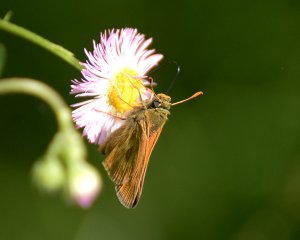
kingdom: Animalia
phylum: Arthropoda
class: Insecta
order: Lepidoptera
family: Hesperiidae
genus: Polites
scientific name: Polites
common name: Long Dash Skipper
